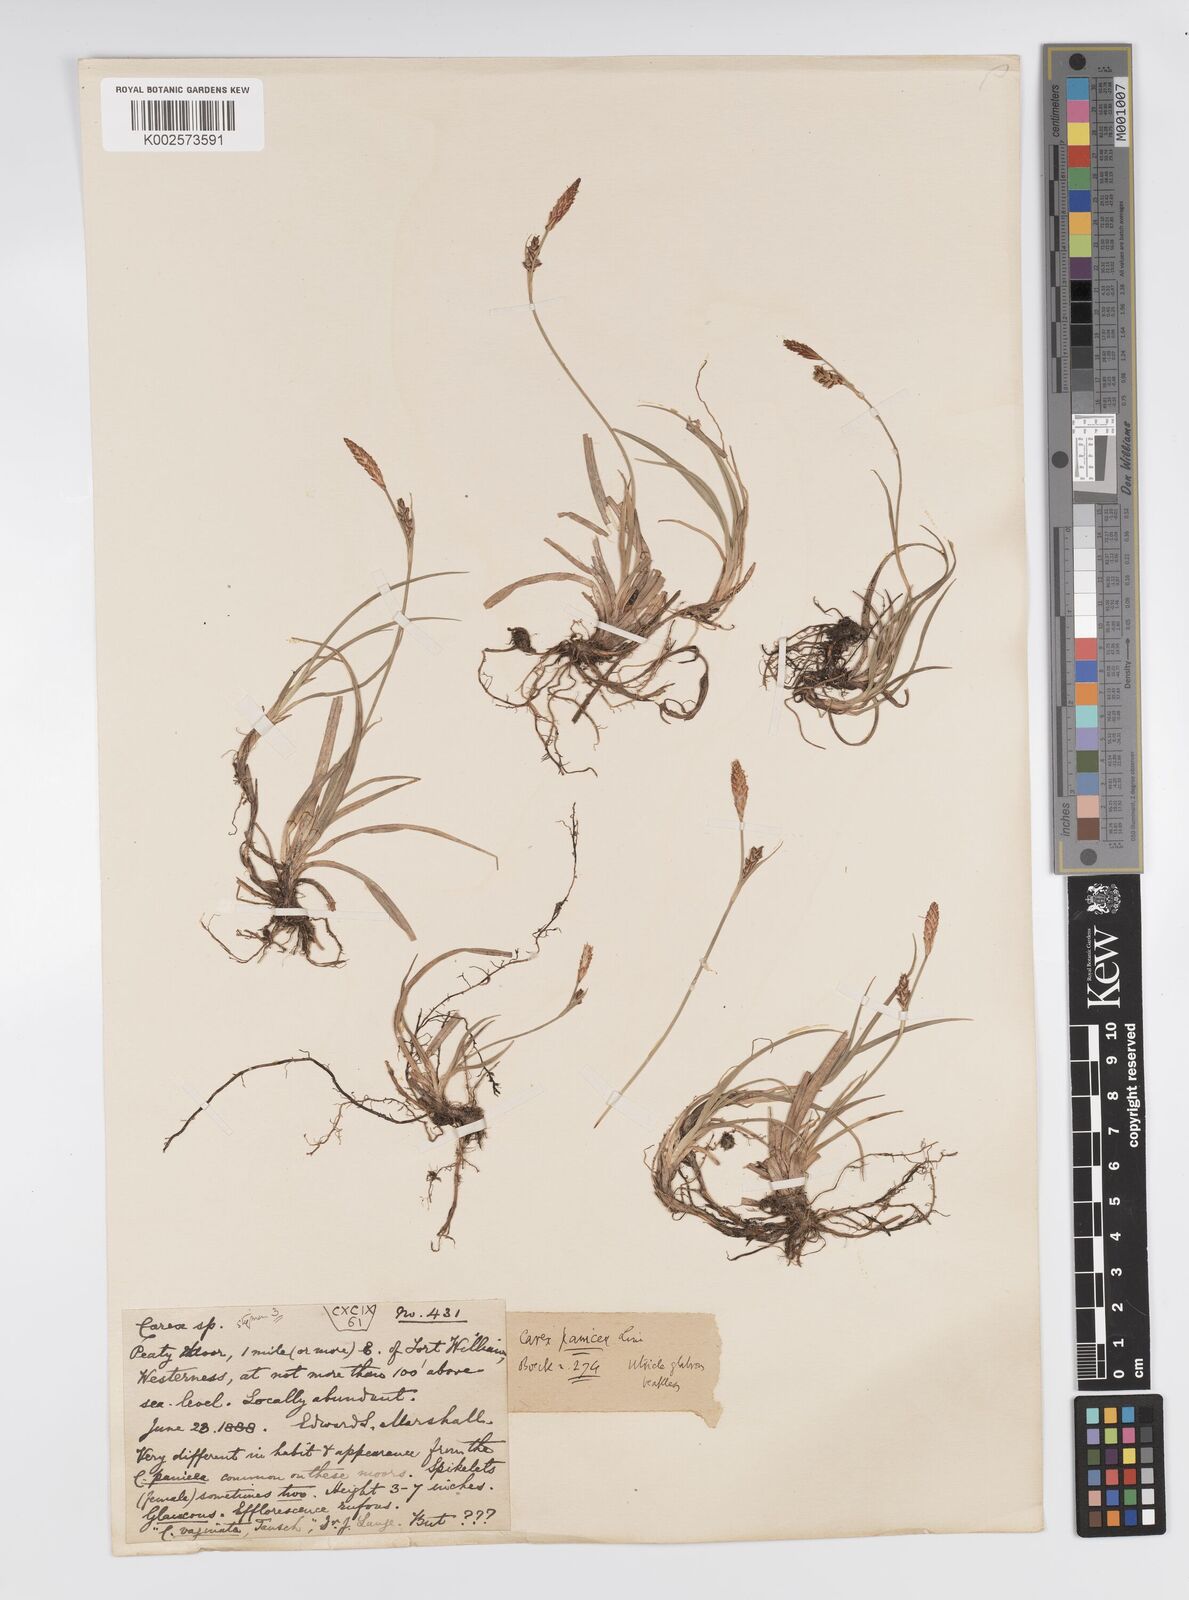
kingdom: Plantae
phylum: Tracheophyta
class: Liliopsida
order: Poales
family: Cyperaceae
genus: Carex
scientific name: Carex panicea
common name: Carnation sedge
